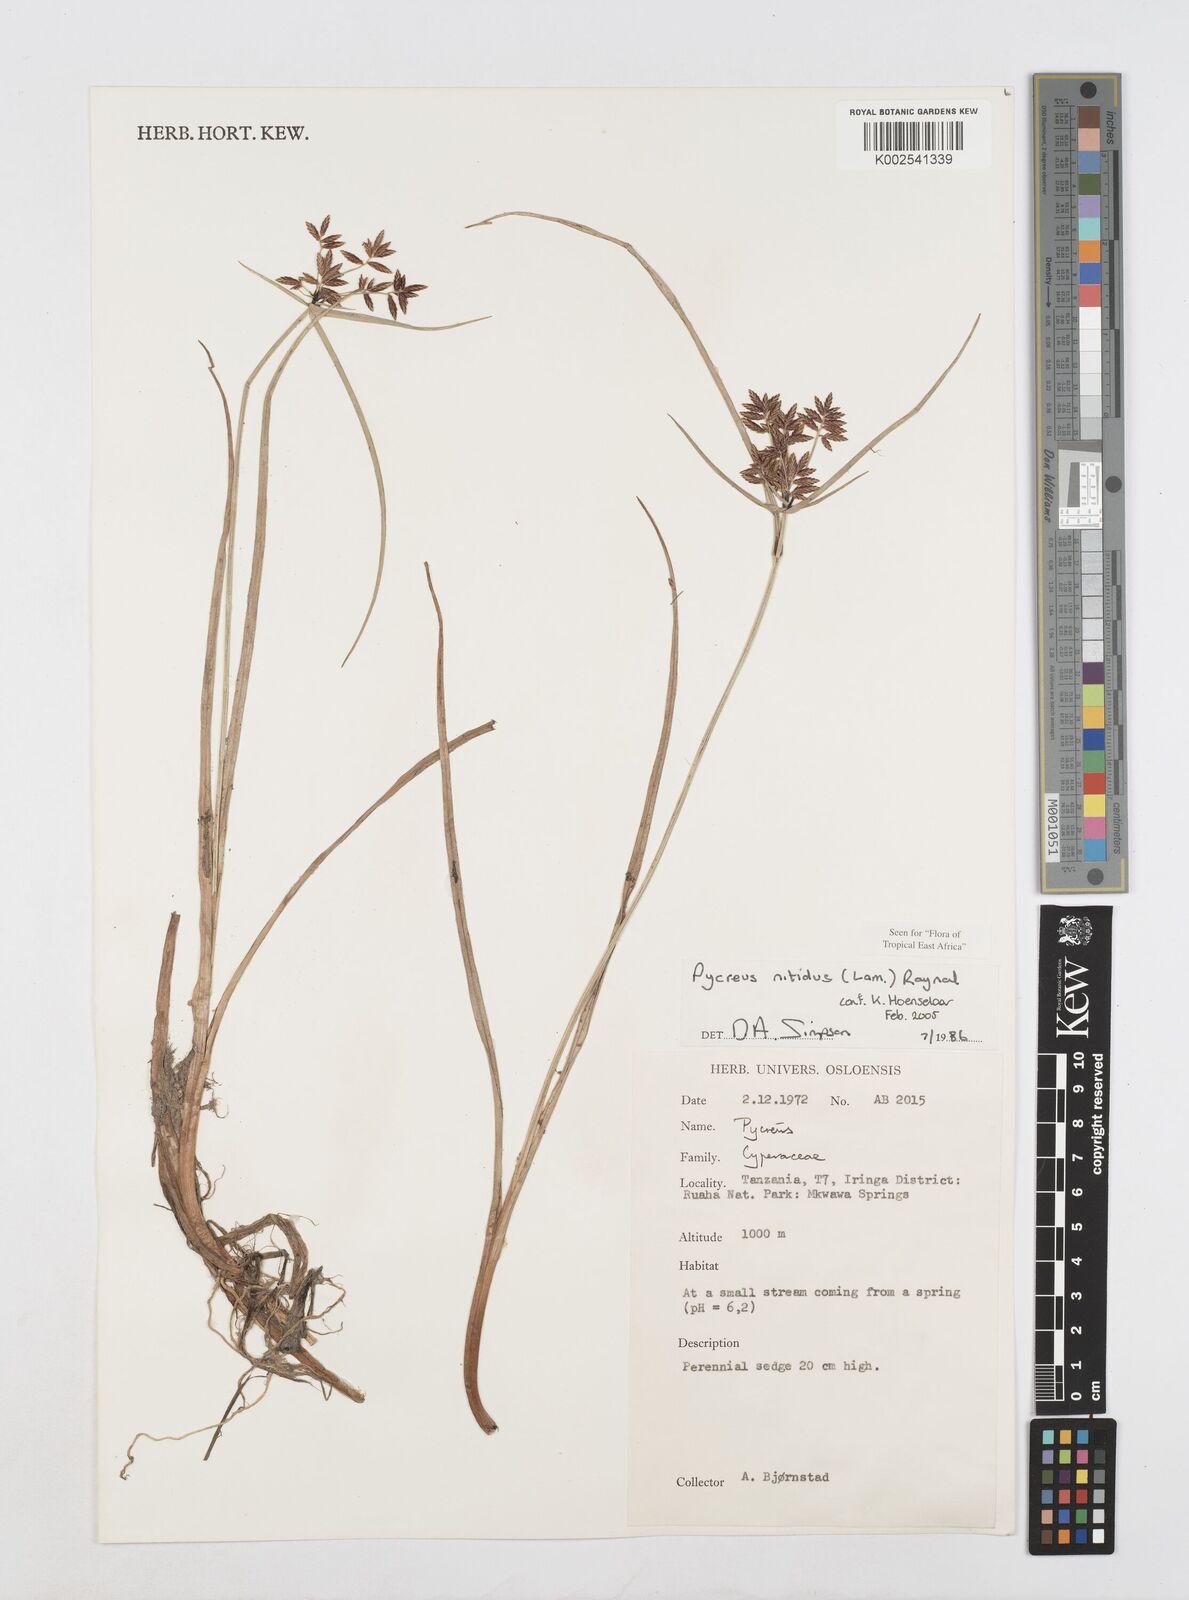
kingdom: Plantae
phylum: Tracheophyta
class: Liliopsida
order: Poales
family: Cyperaceae
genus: Cyperus
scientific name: Cyperus nitidus
